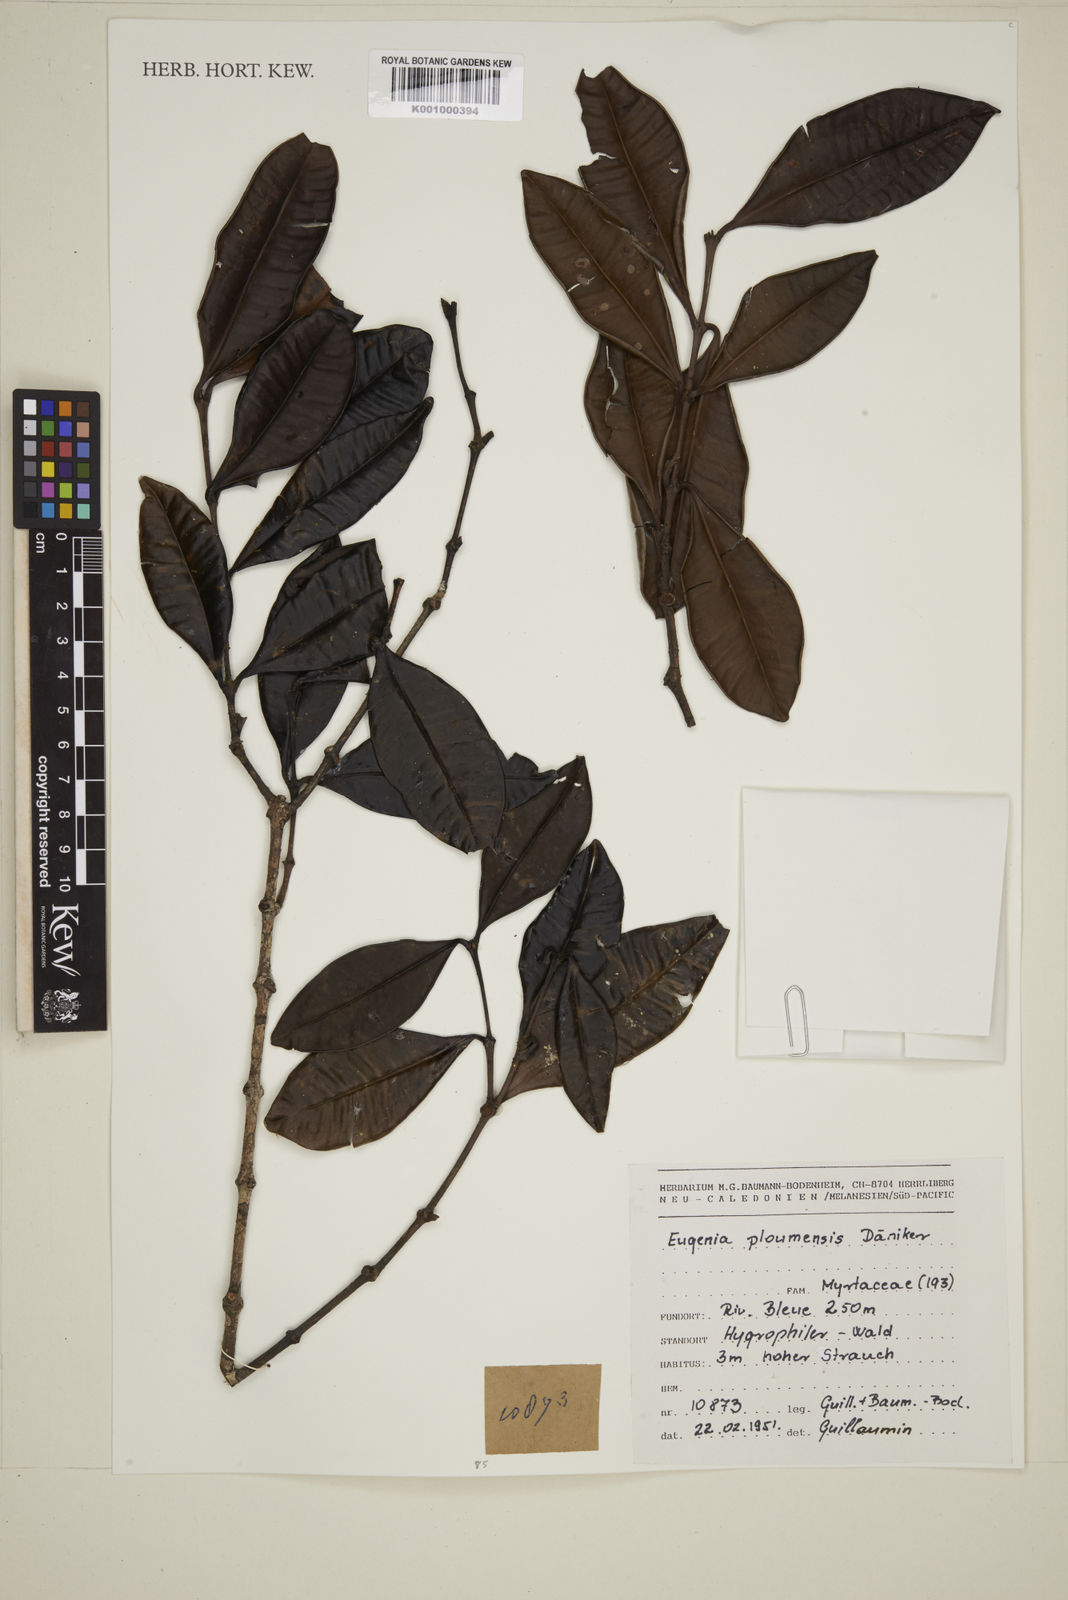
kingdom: Plantae
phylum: Tracheophyta
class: Magnoliopsida
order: Myrtales
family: Myrtaceae
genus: Eugenia
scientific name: Eugenia
